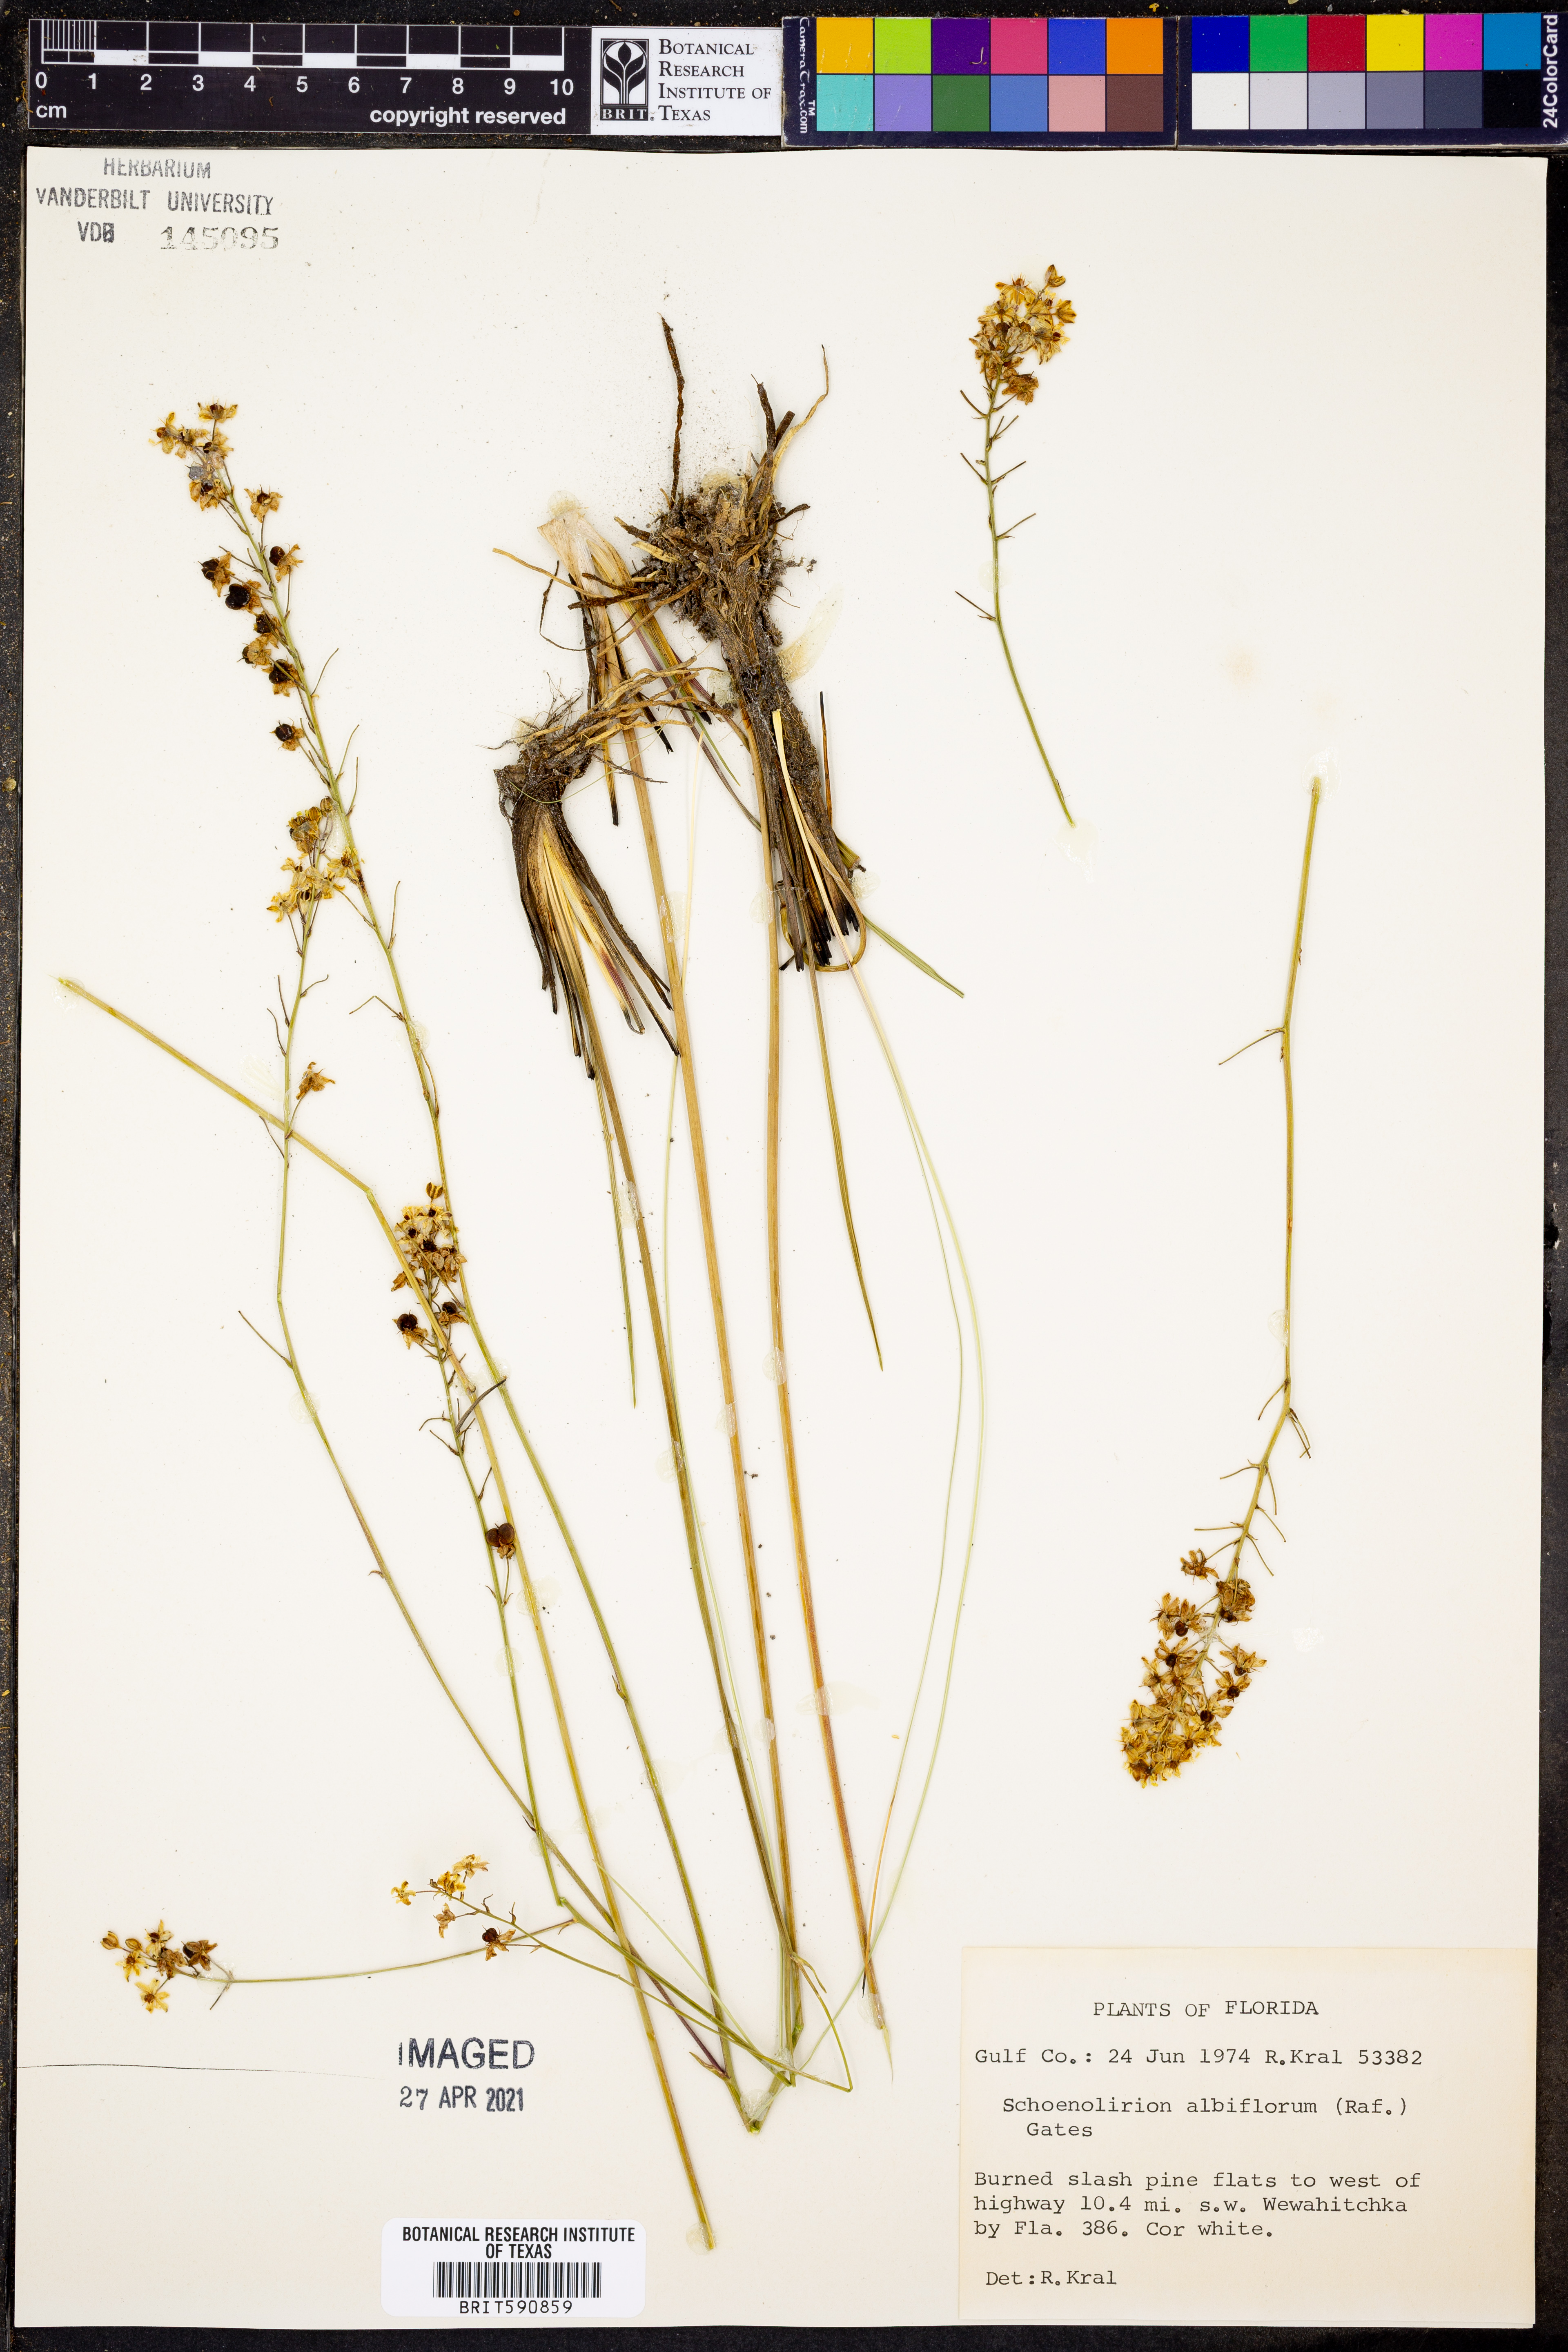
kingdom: Plantae
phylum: Tracheophyta
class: Liliopsida
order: Asparagales
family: Asparagaceae
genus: Schoenolirion
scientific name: Schoenolirion albiflorum
